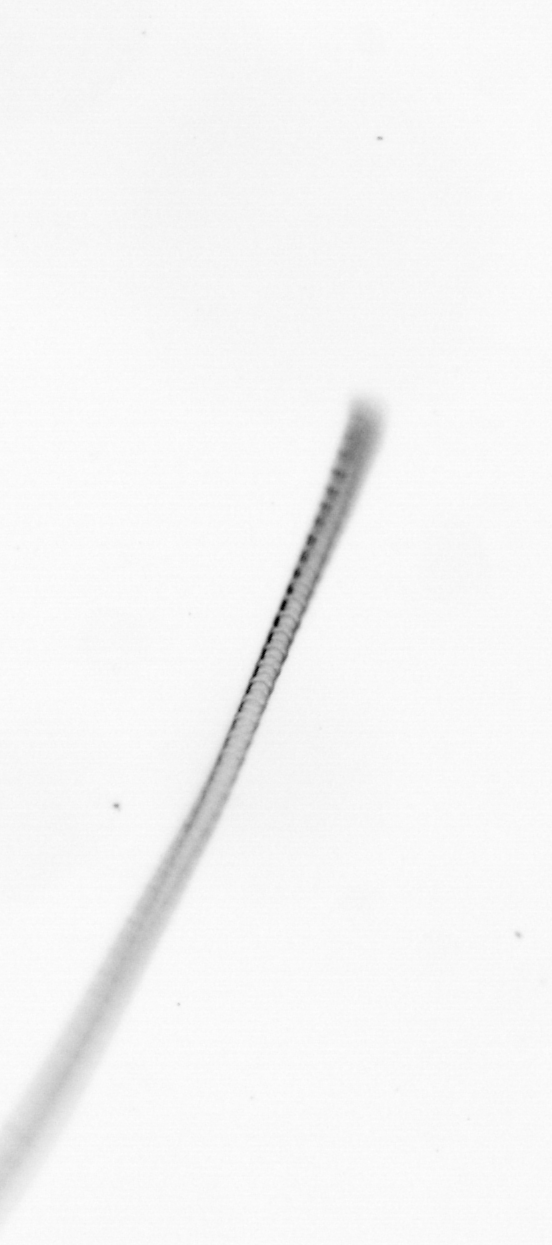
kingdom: Chromista
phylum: Ochrophyta
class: Bacillariophyceae
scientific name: Bacillariophyceae
